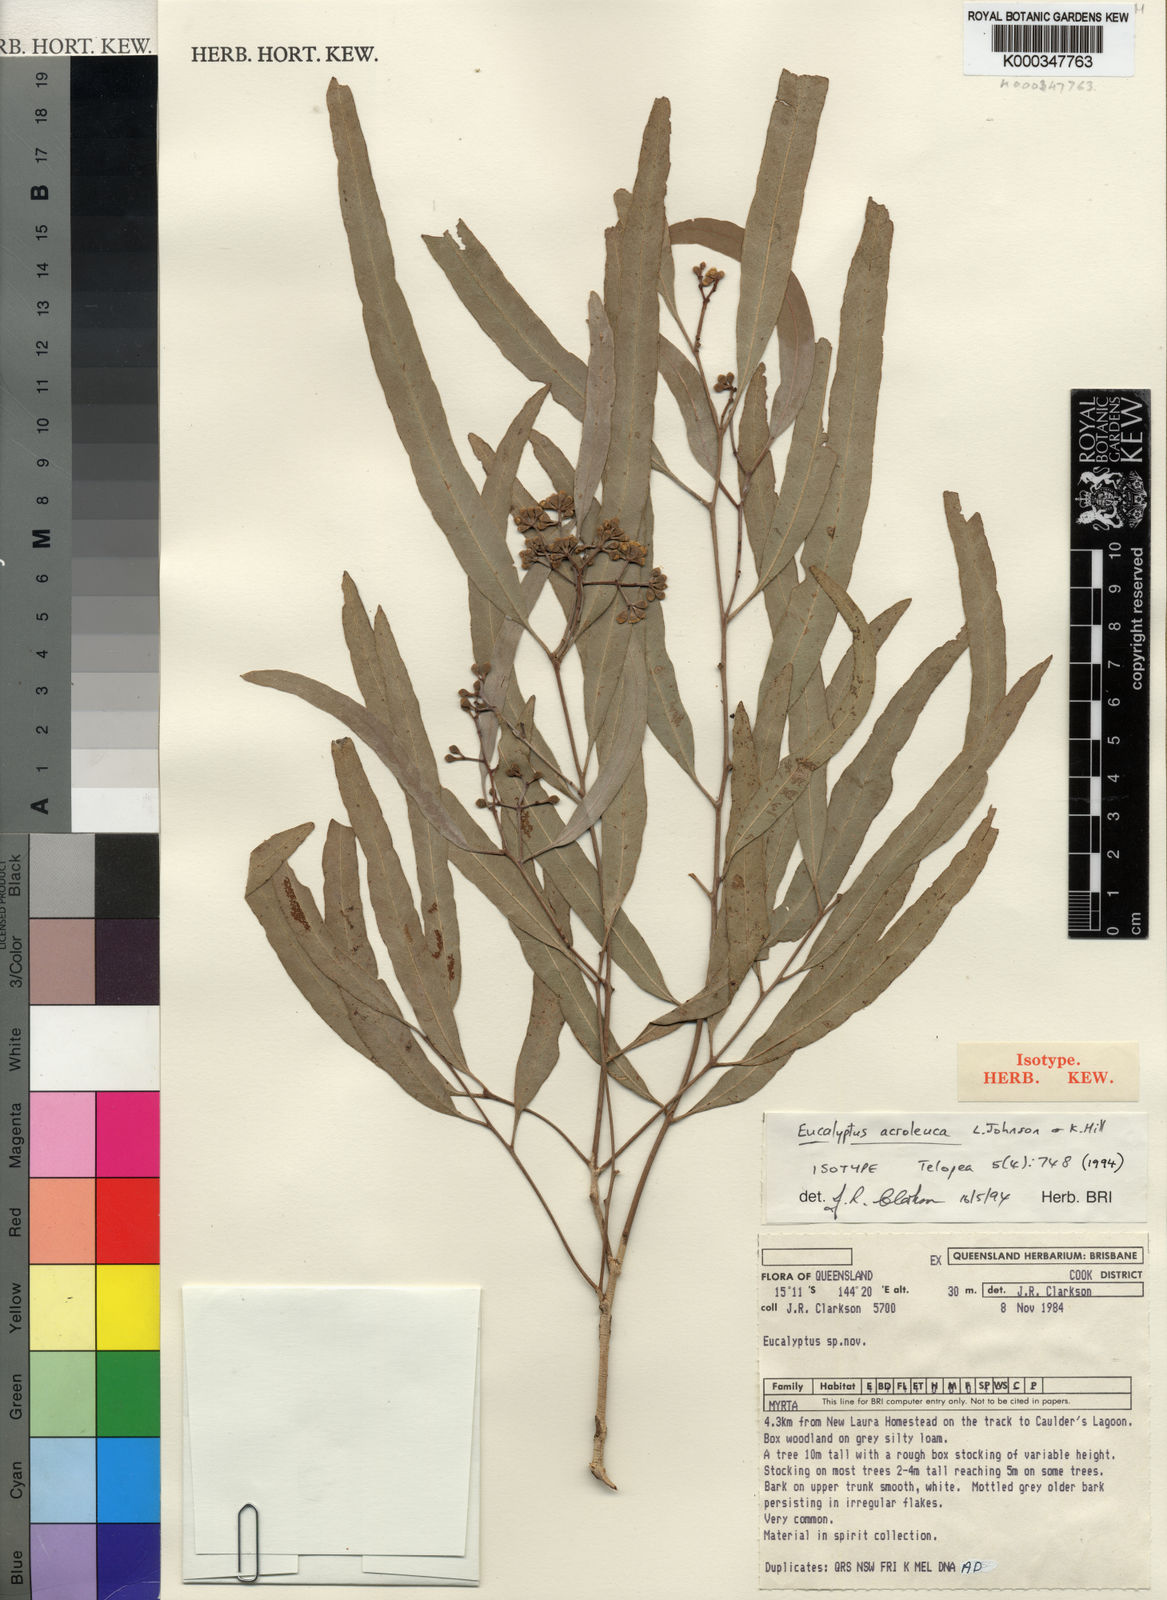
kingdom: Plantae
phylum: Tracheophyta
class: Magnoliopsida
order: Myrtales
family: Myrtaceae
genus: Eucalyptus
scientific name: Eucalyptus acroleuca
